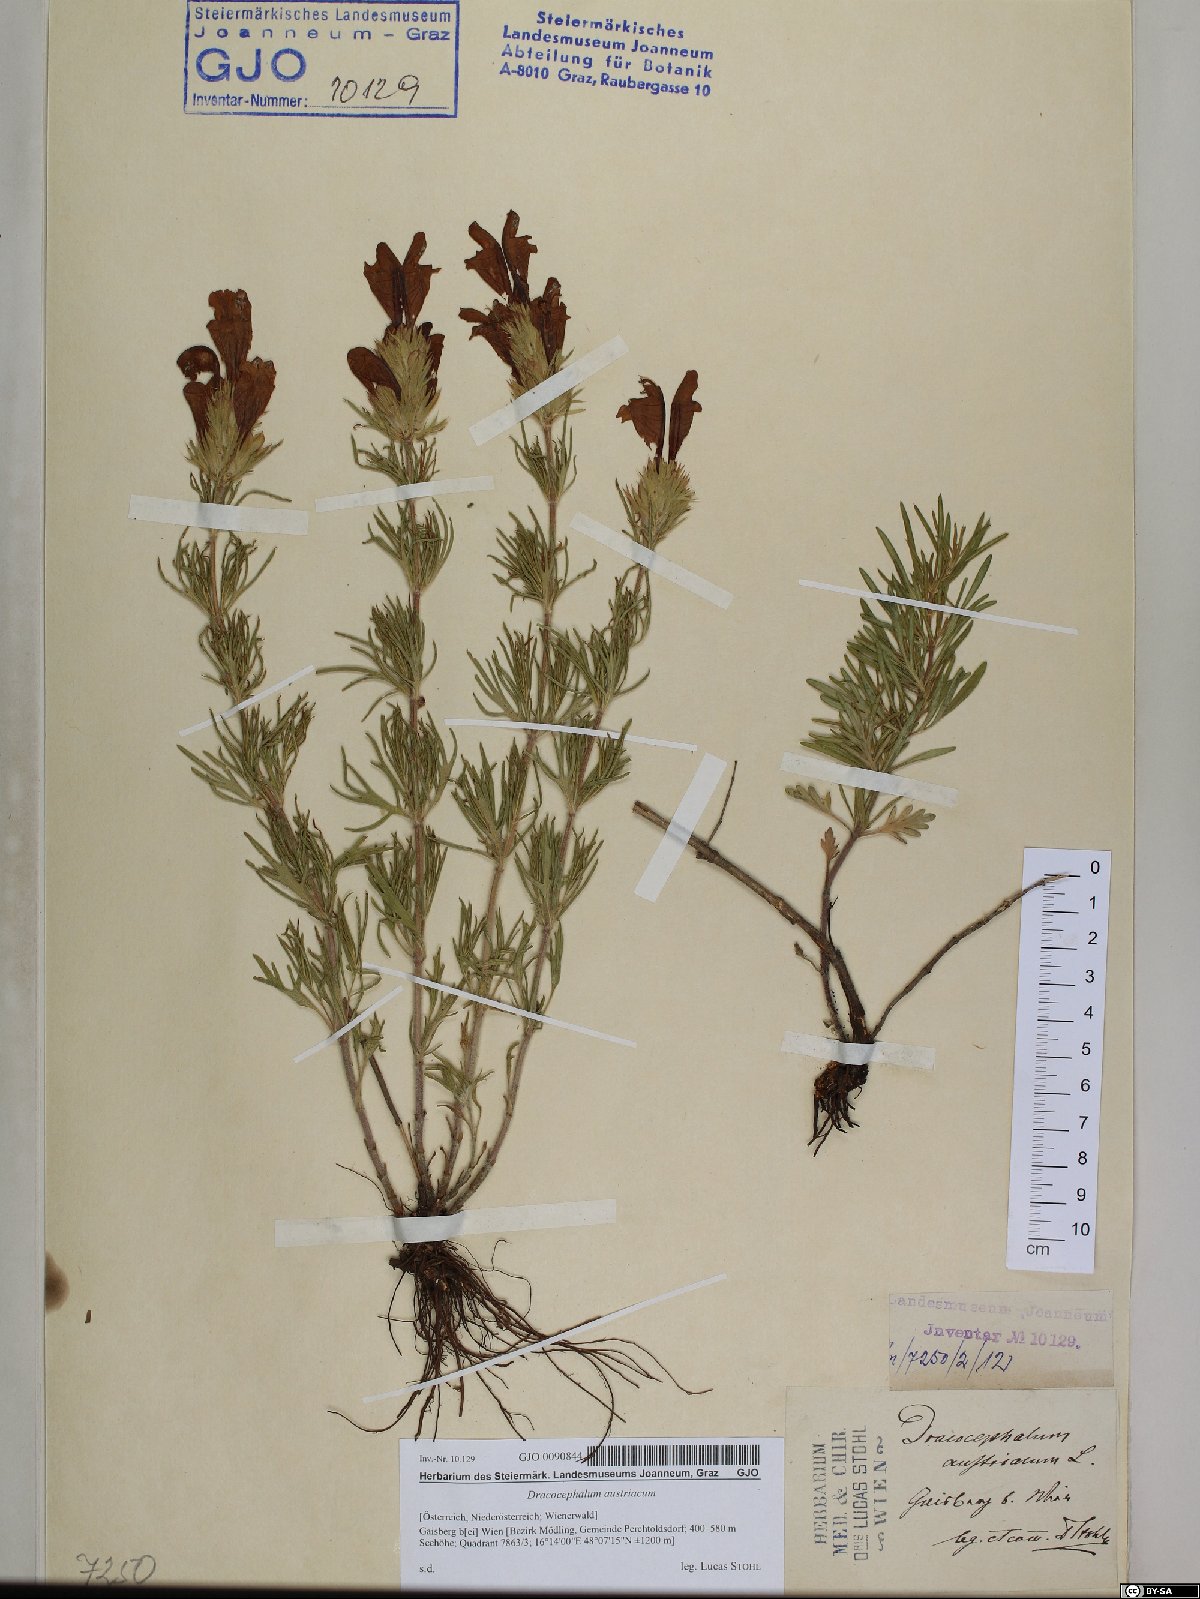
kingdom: Plantae
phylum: Tracheophyta
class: Magnoliopsida
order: Lamiales
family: Lamiaceae
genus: Dracocephalum
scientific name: Dracocephalum austriacum
